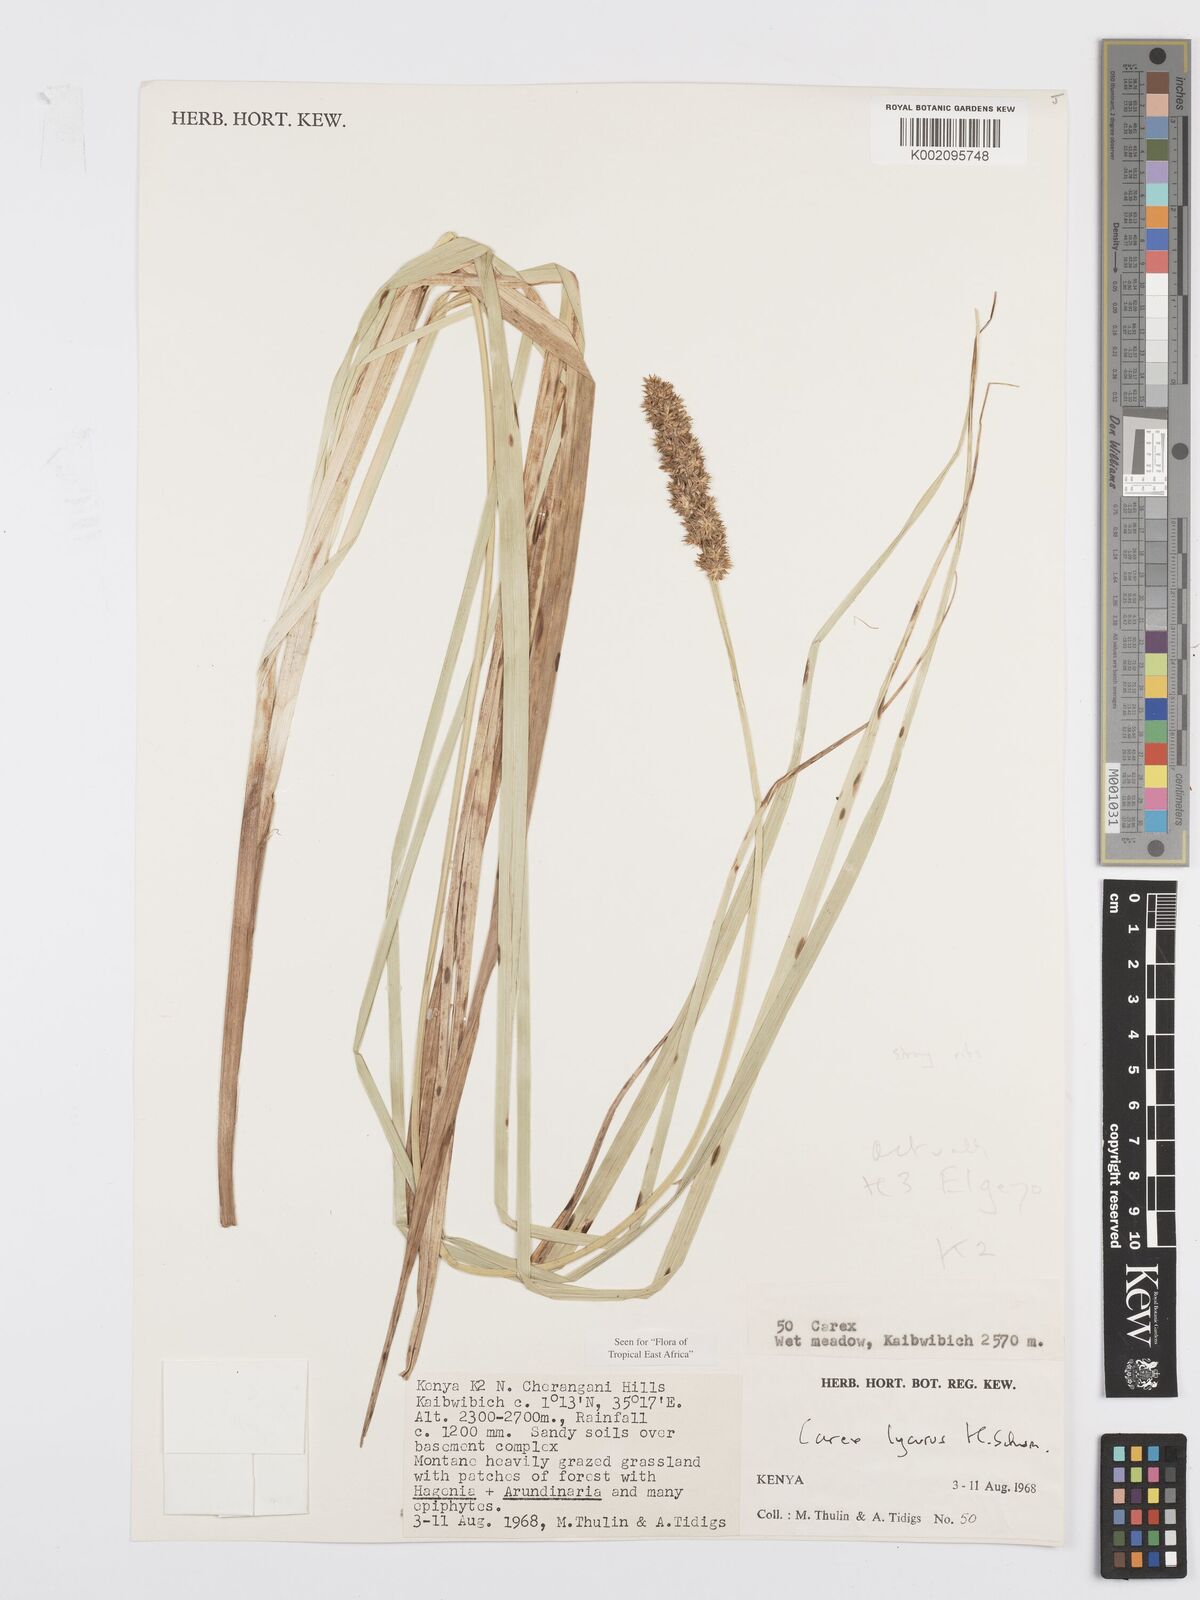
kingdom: Plantae
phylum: Tracheophyta
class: Liliopsida
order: Poales
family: Cyperaceae
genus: Carex
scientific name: Carex lycurus
